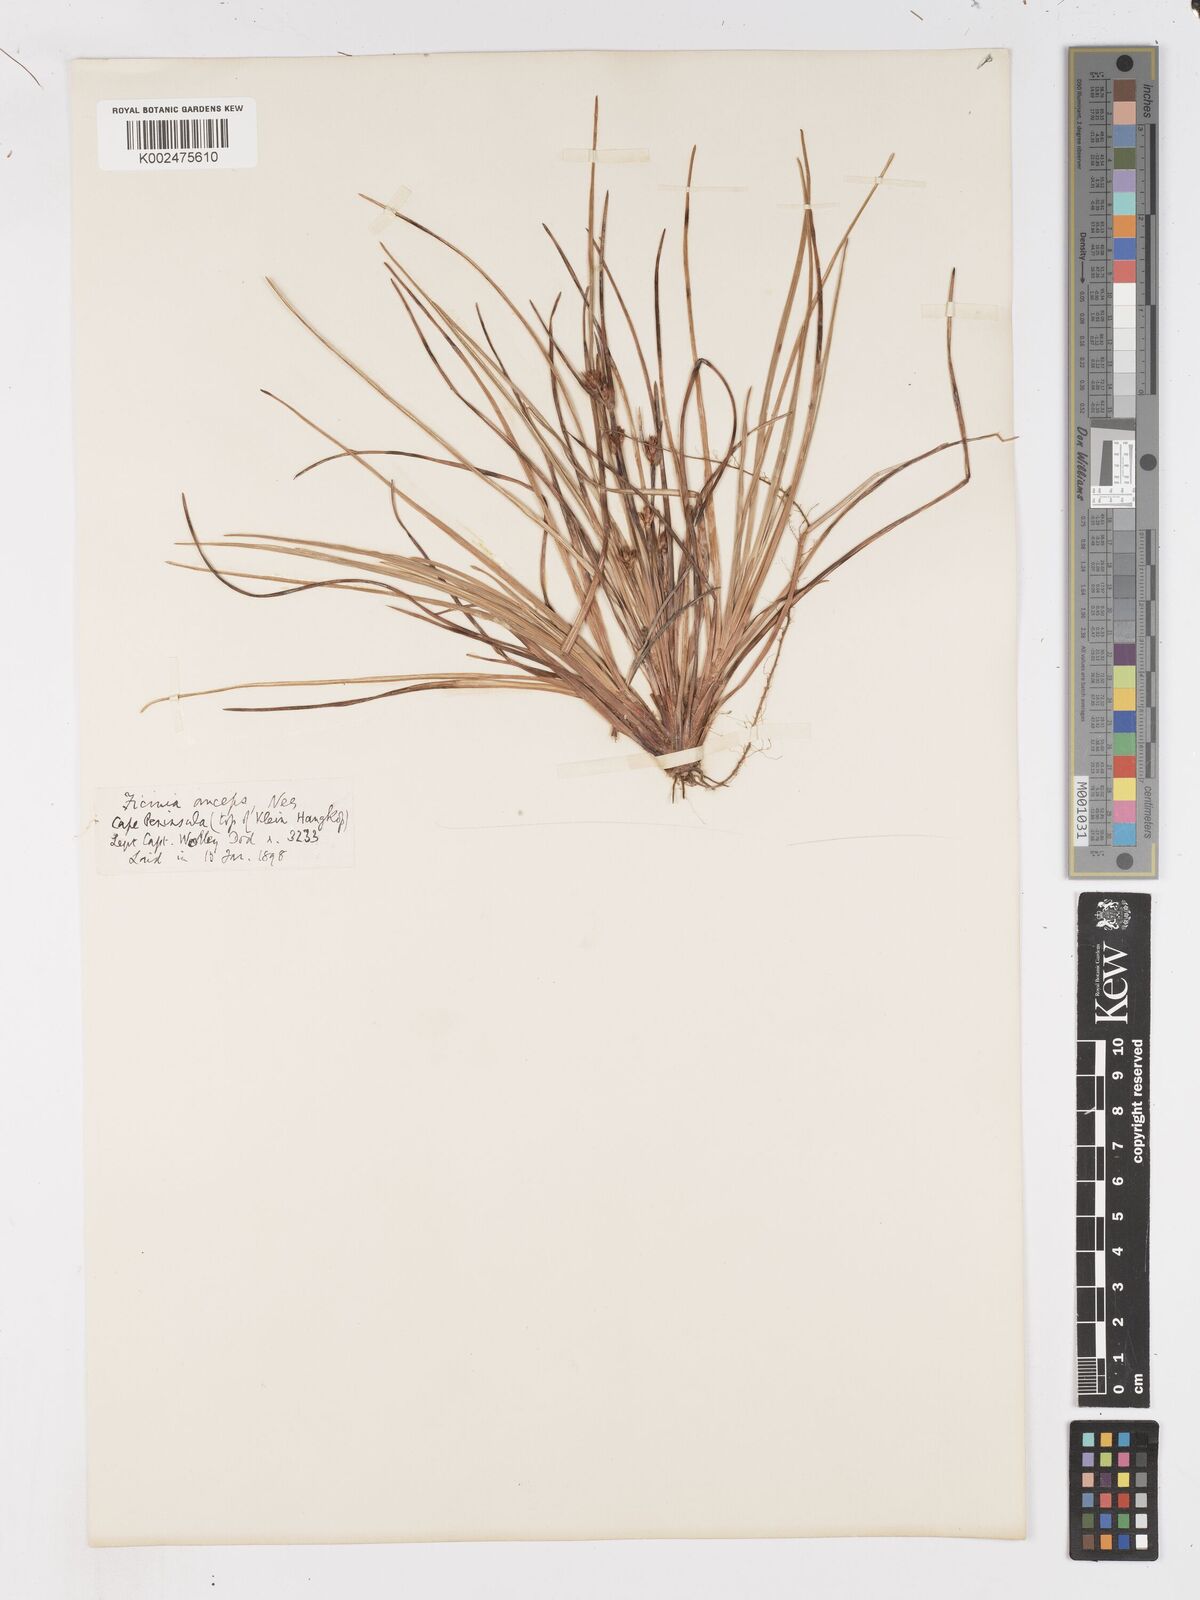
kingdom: Plantae
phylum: Tracheophyta
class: Liliopsida
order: Poales
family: Cyperaceae
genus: Ficinia
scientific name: Ficinia anceps
